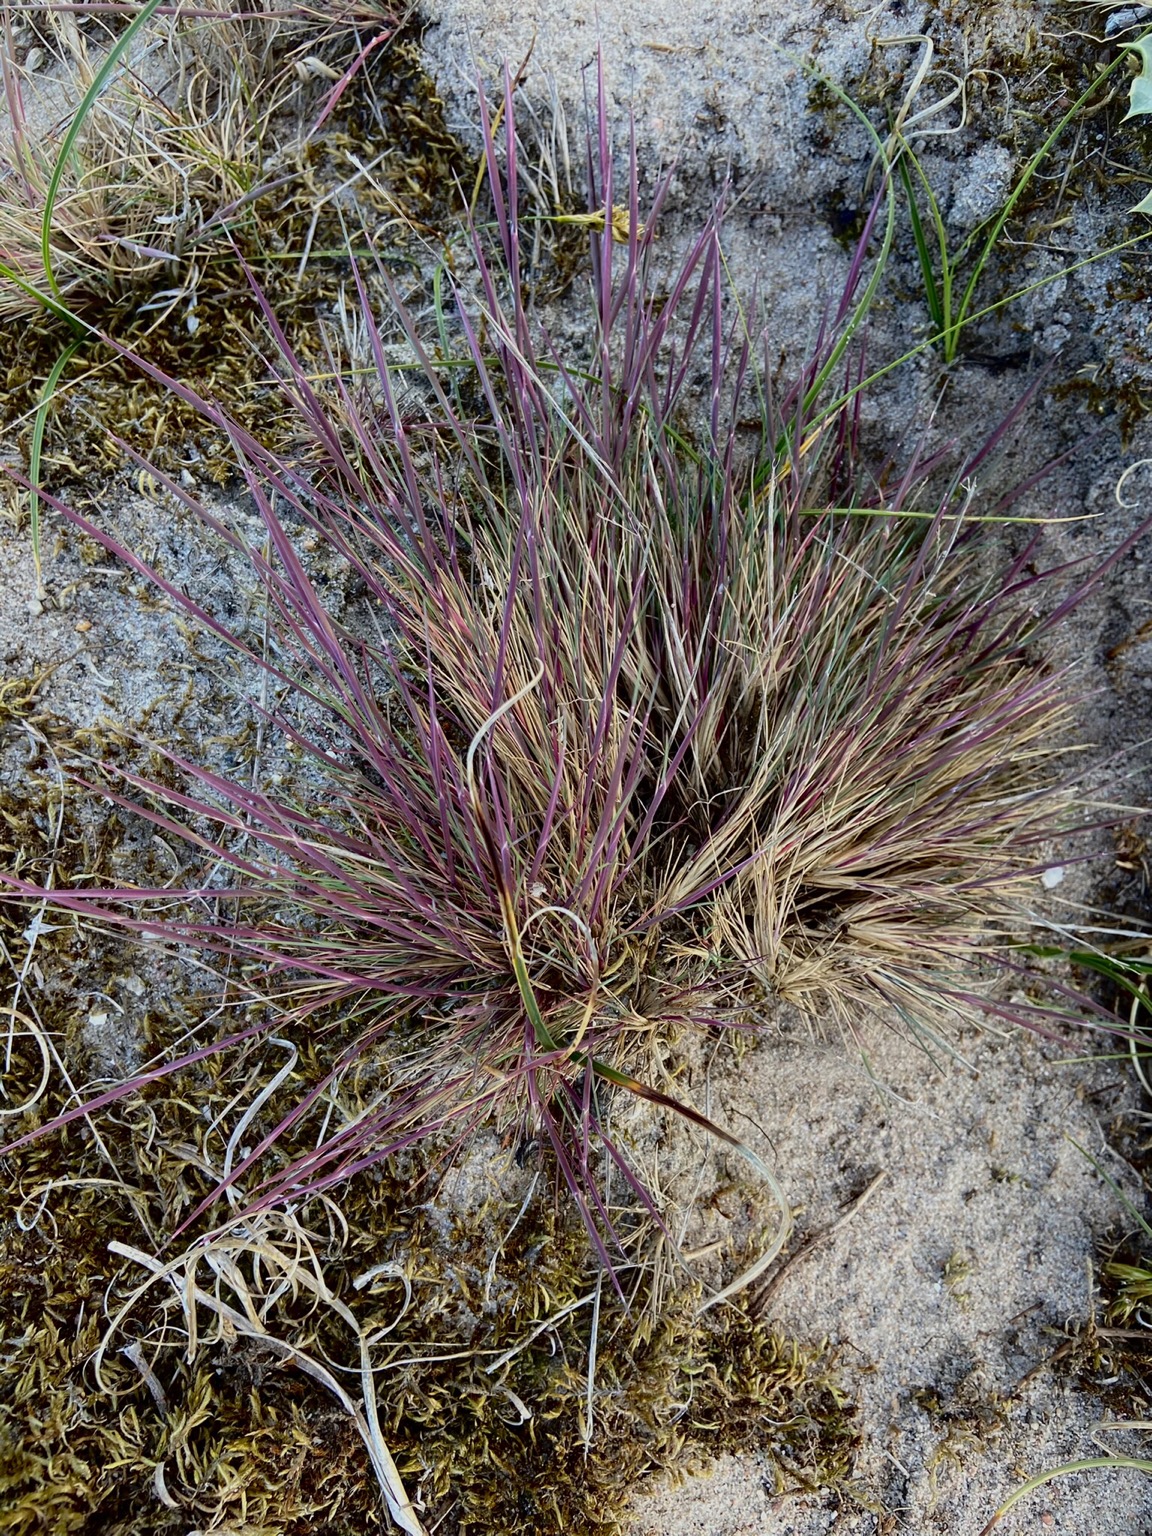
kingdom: Plantae
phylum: Tracheophyta
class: Liliopsida
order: Poales
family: Poaceae
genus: Corynephorus
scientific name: Corynephorus canescens
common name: Sandskæg
